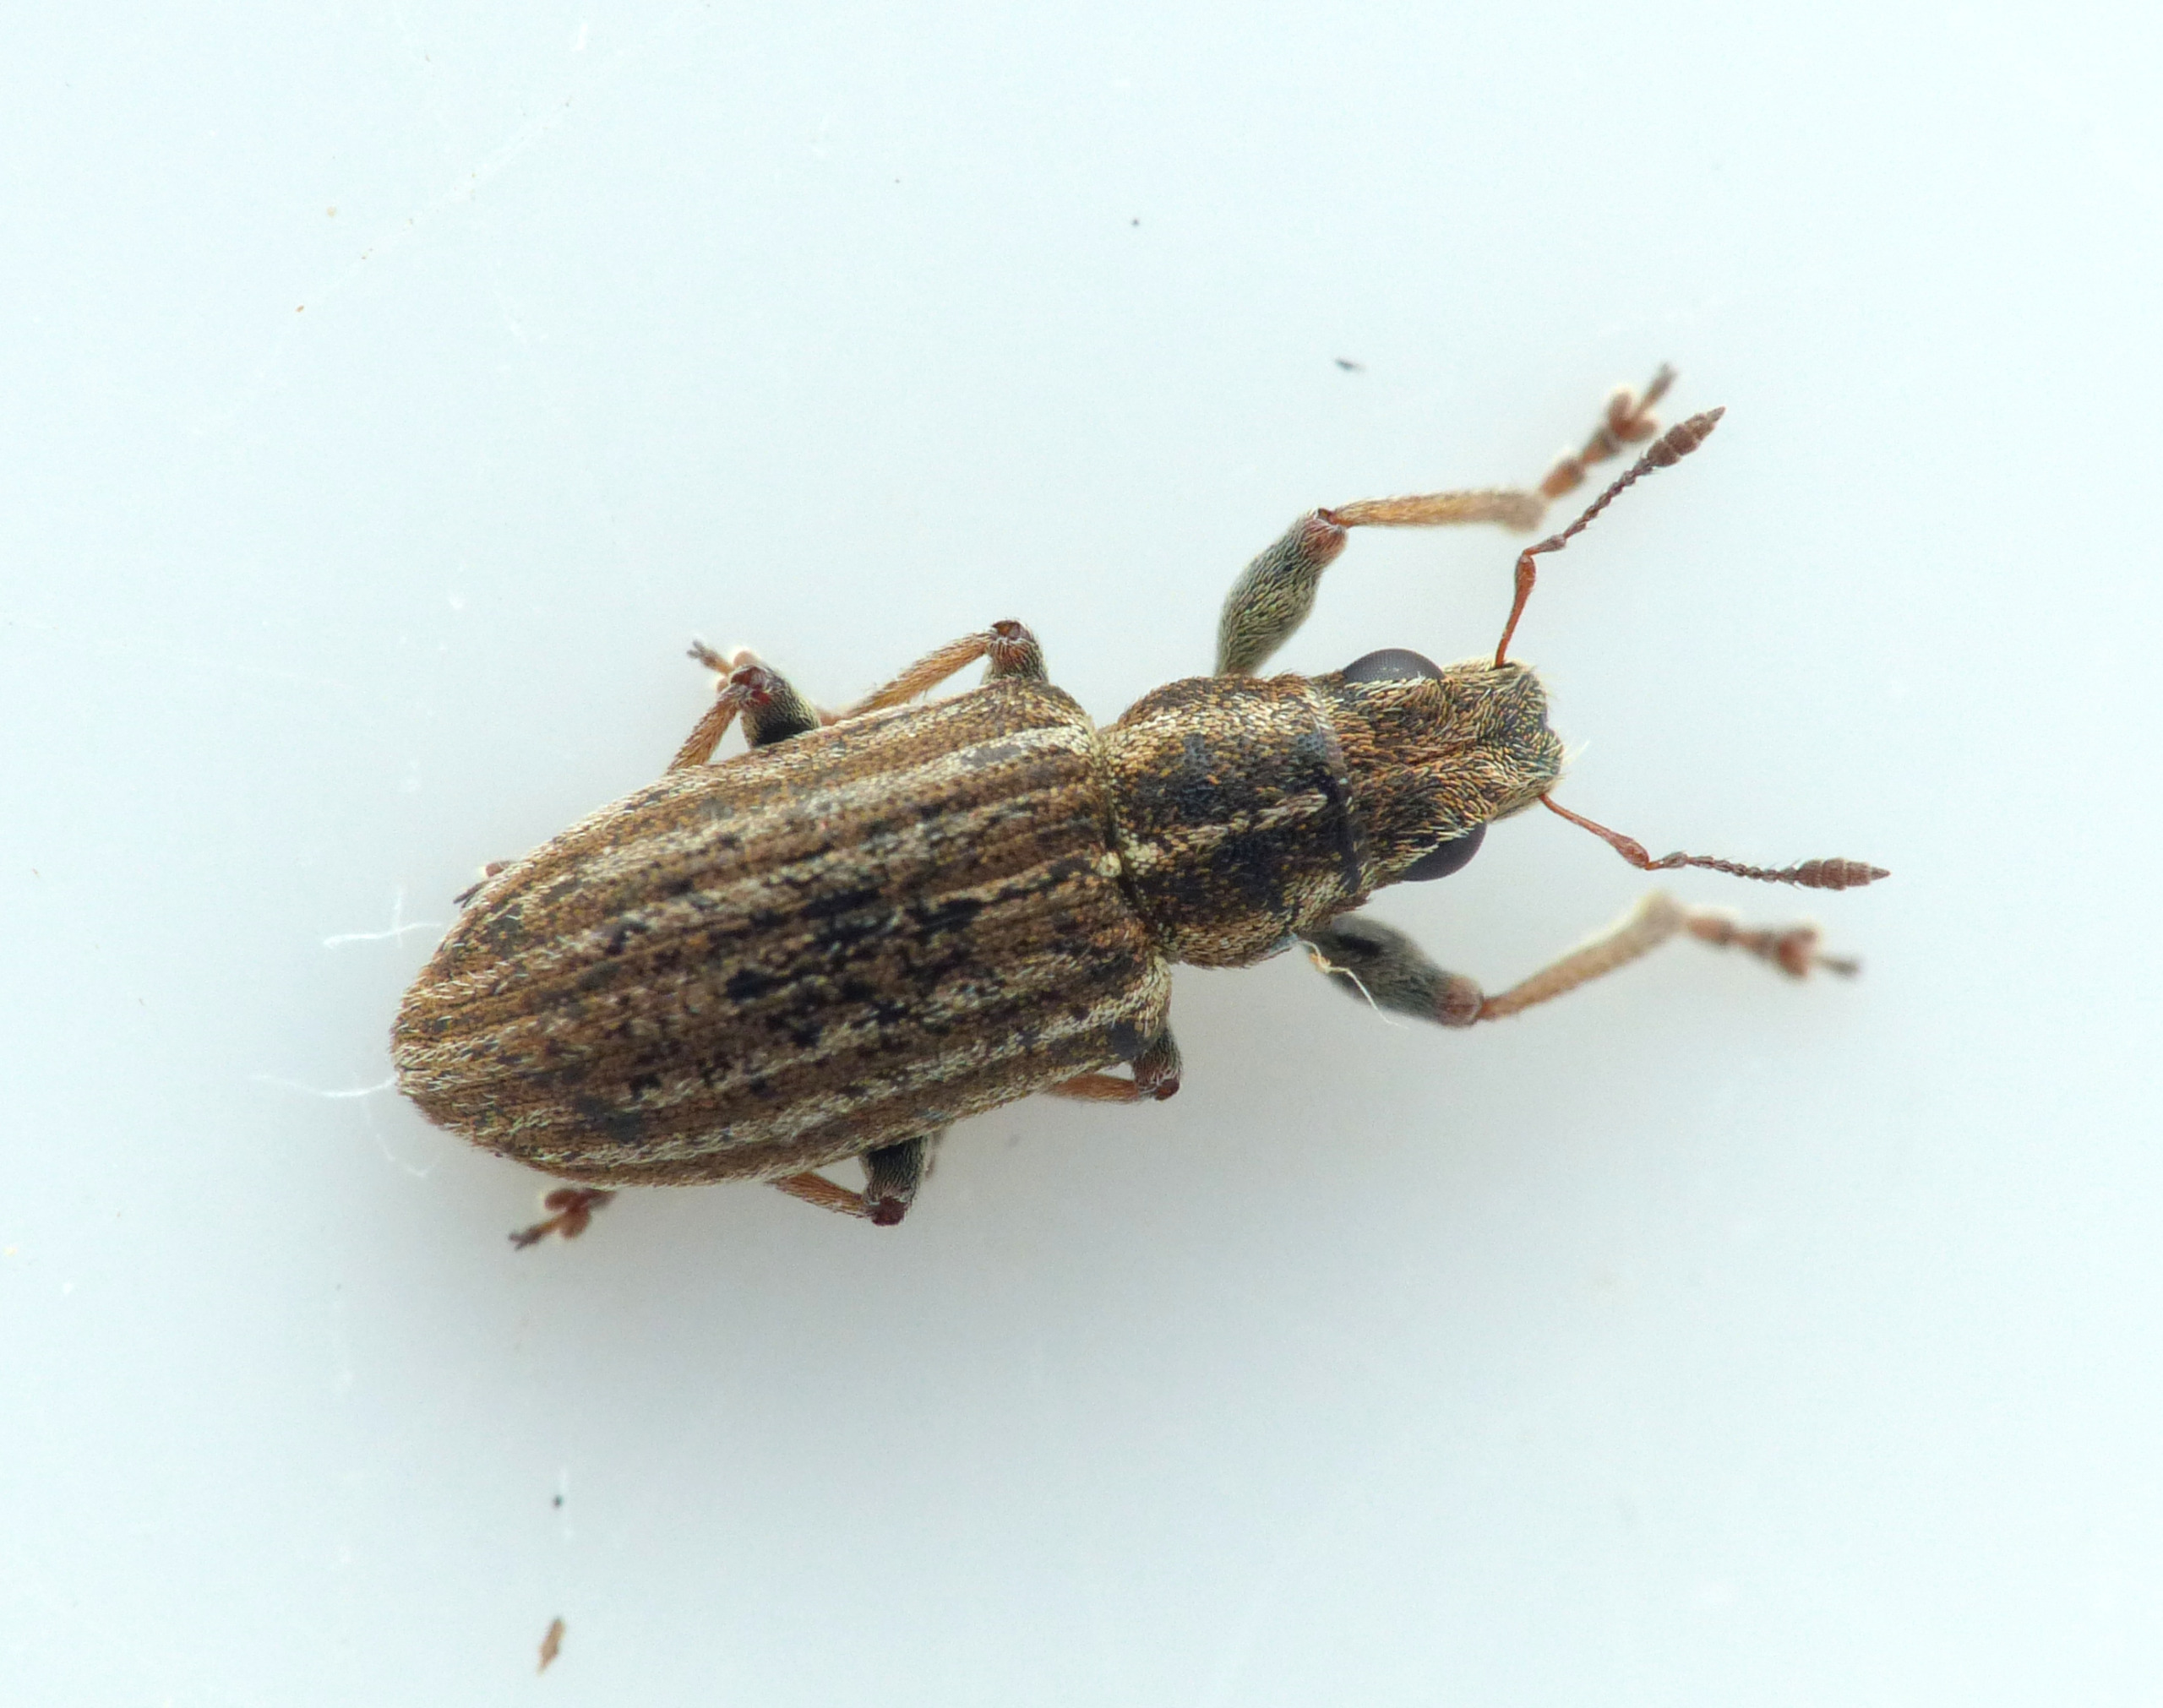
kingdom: Animalia
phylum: Arthropoda
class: Insecta
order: Coleoptera
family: Curculionidae
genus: Sitona
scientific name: Sitona lineatus
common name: Stribet bladrandbille
